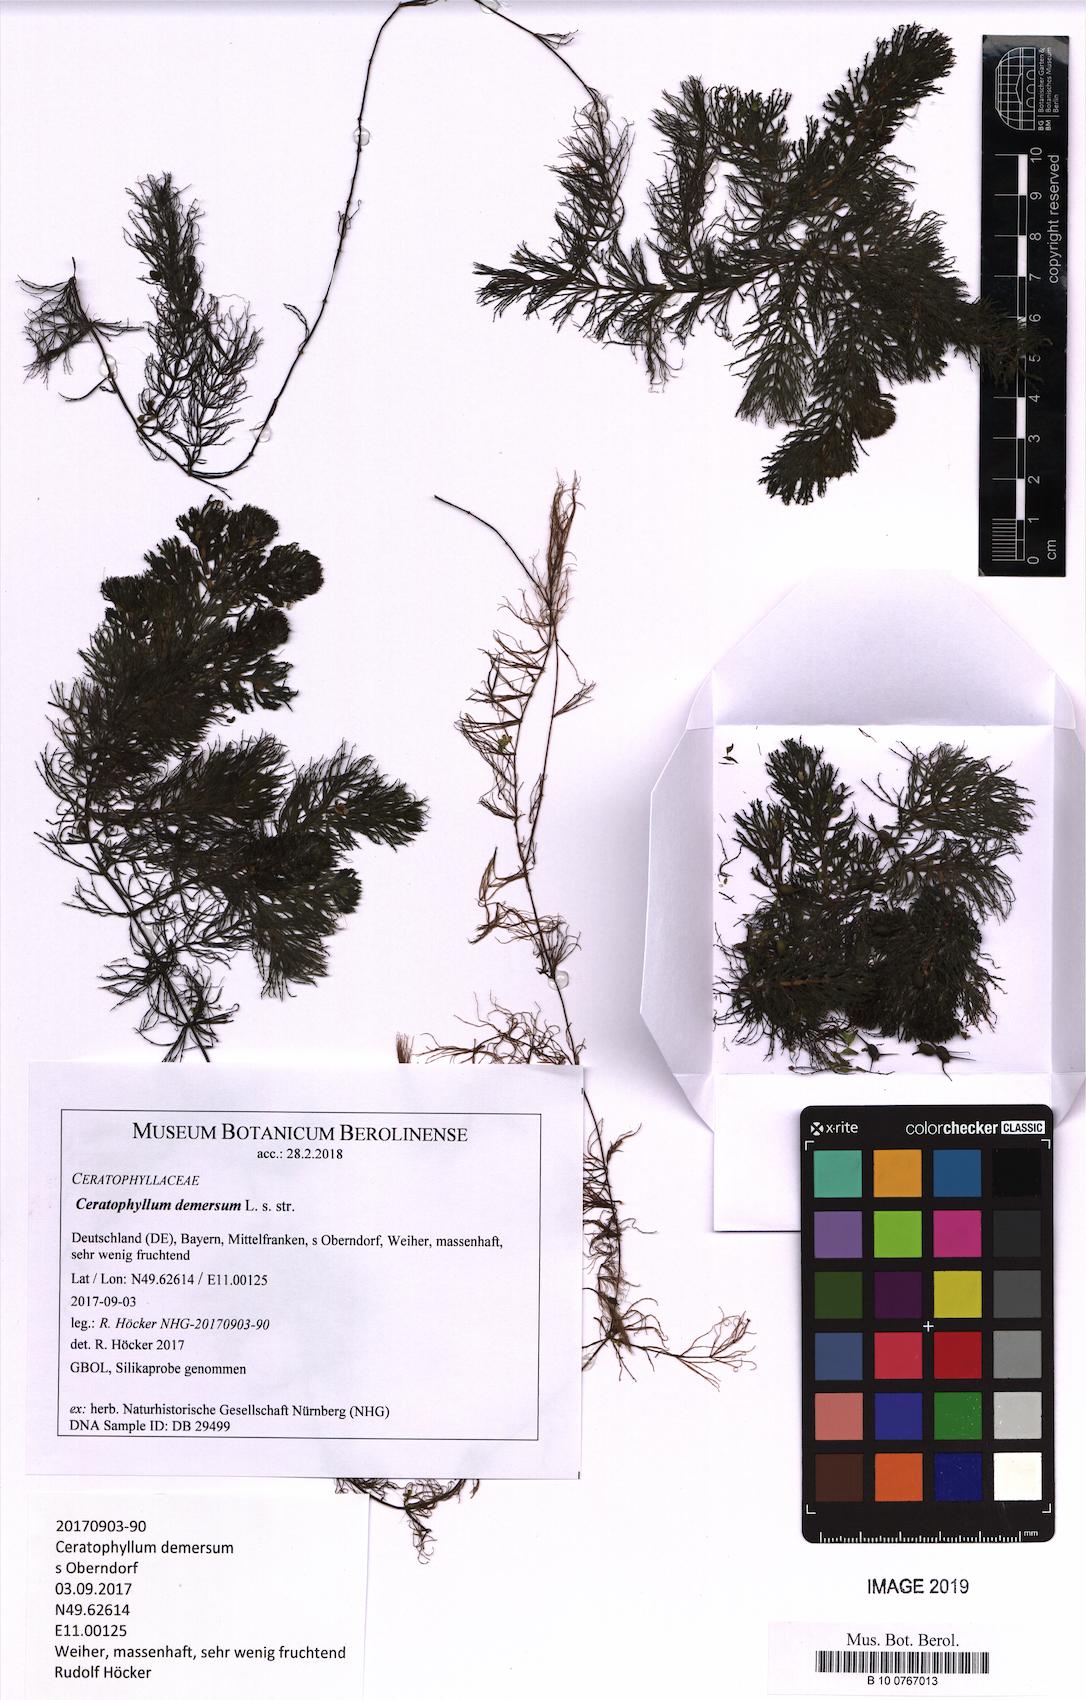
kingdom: Plantae
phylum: Tracheophyta
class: Magnoliopsida
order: Ceratophyllales
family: Ceratophyllaceae
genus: Ceratophyllum
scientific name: Ceratophyllum demersum
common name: Rigid hornwort
